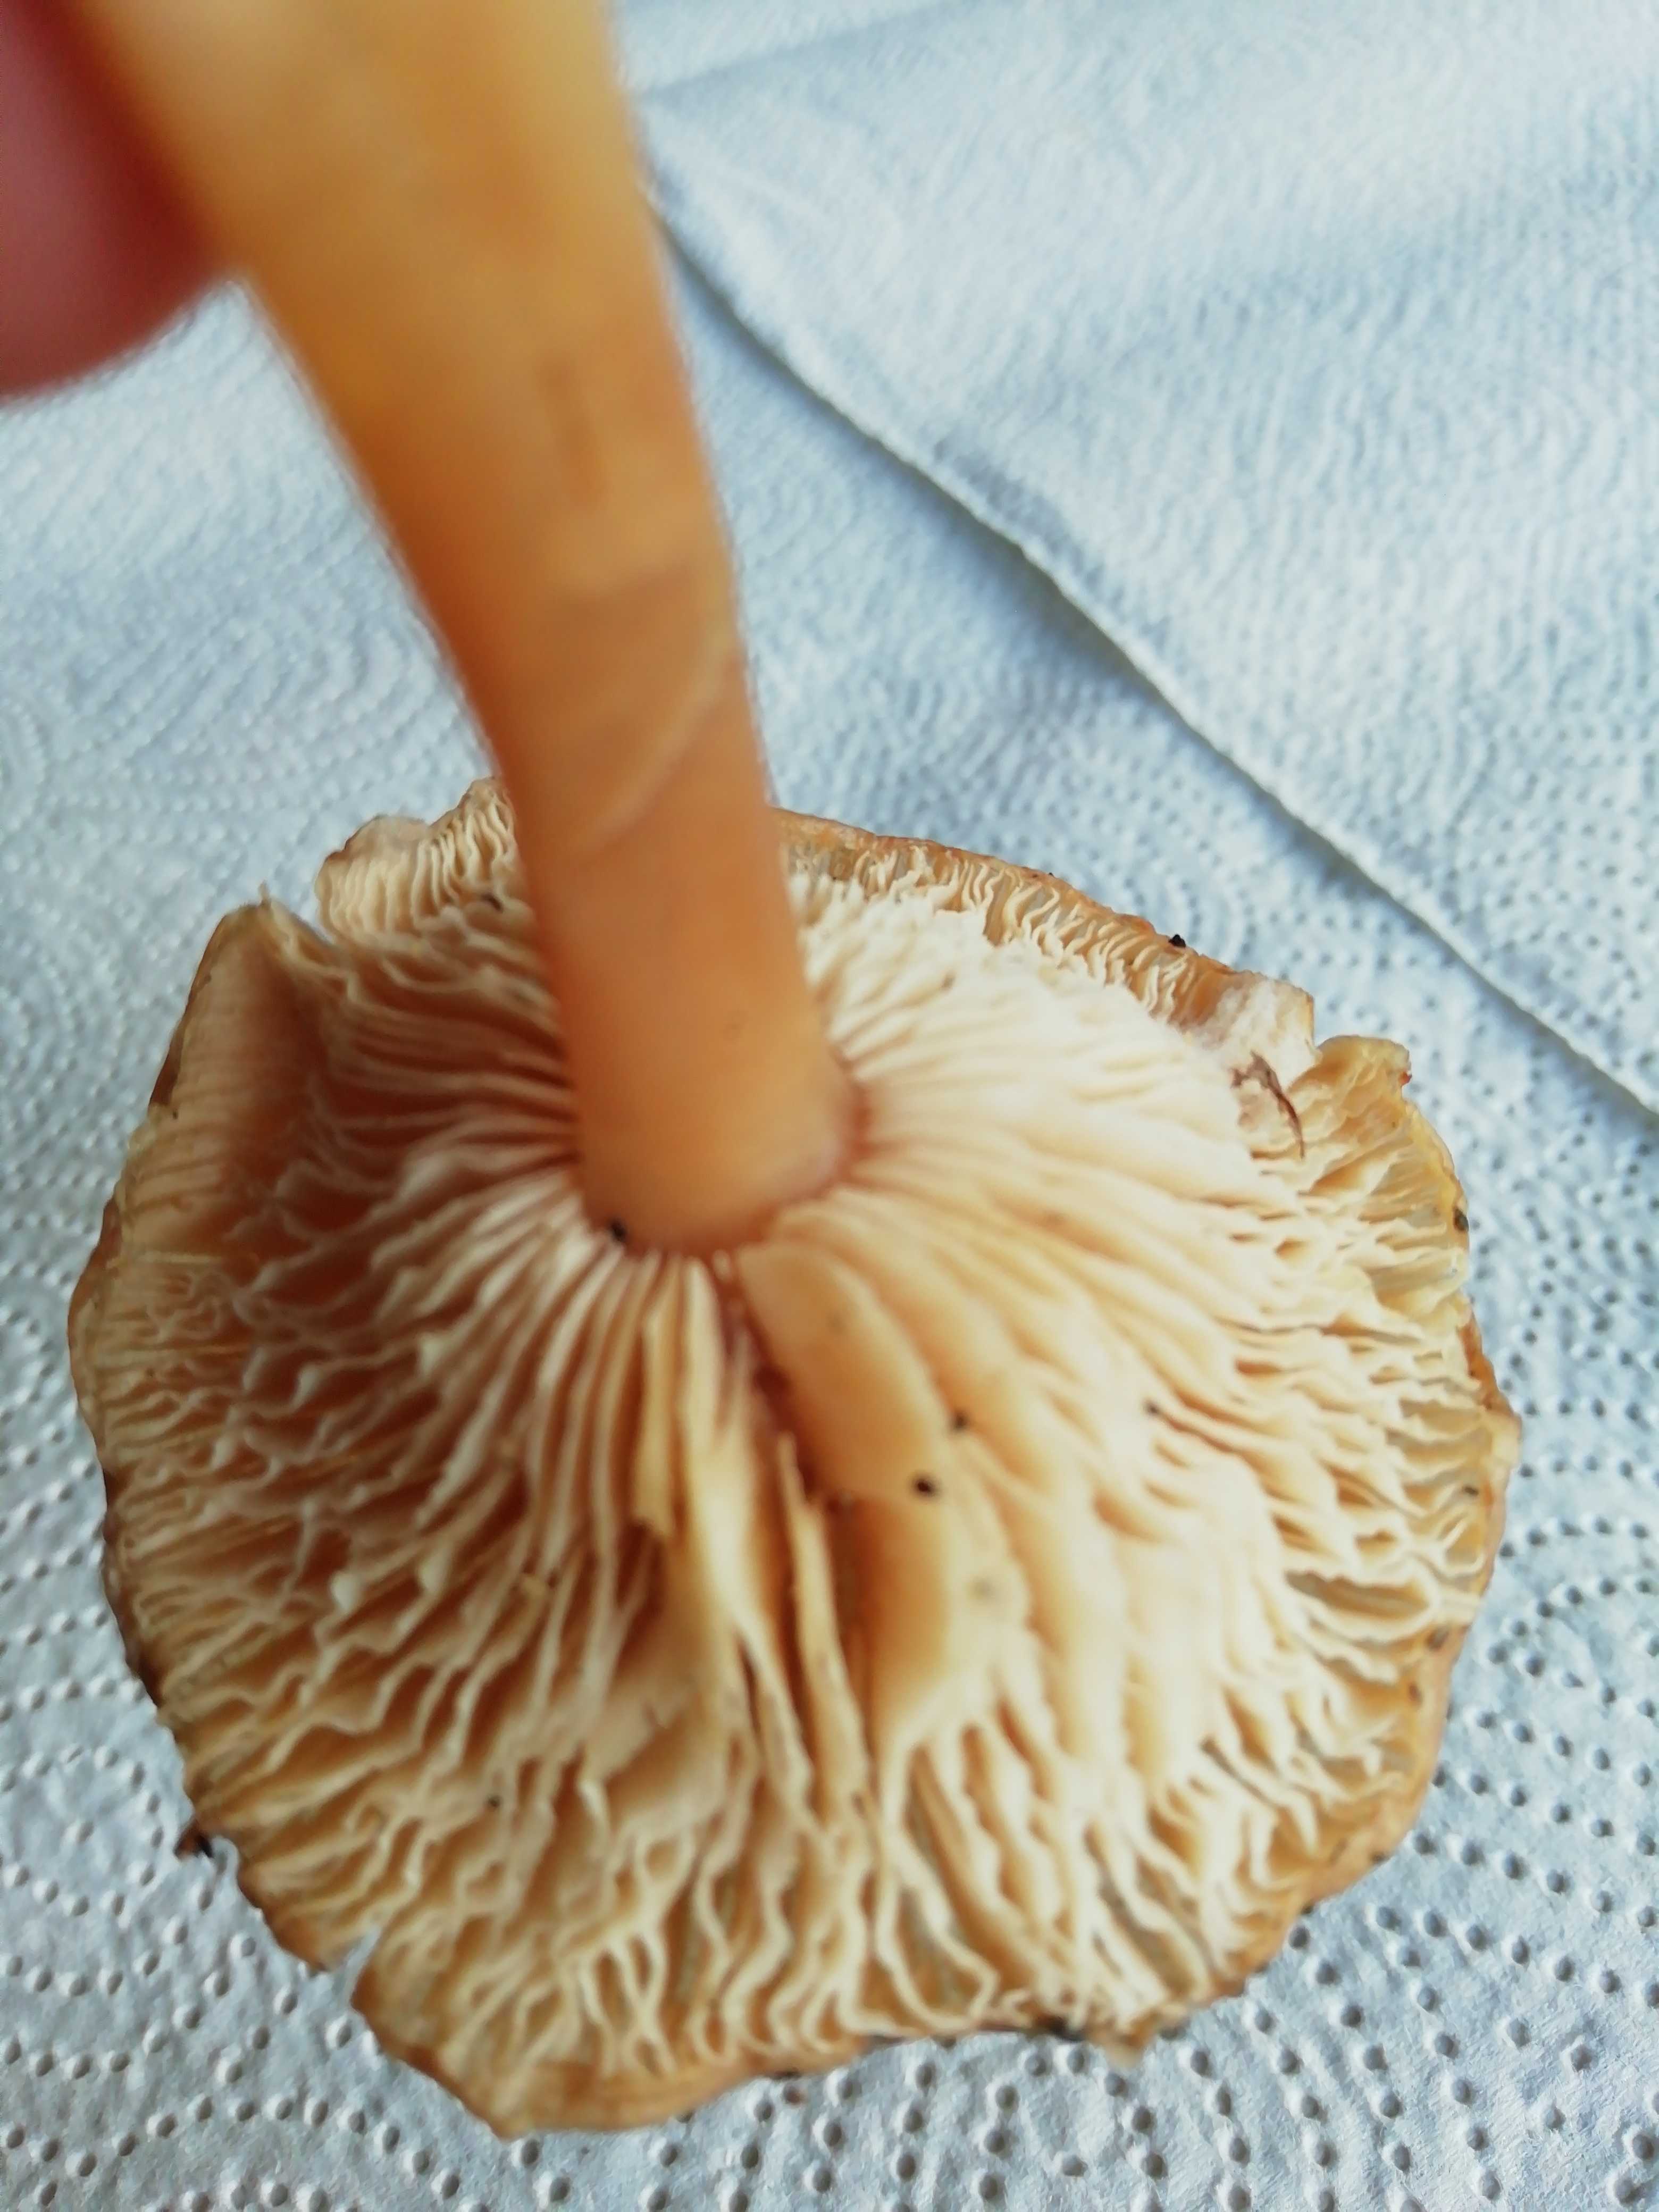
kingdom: Fungi
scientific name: Fungi
